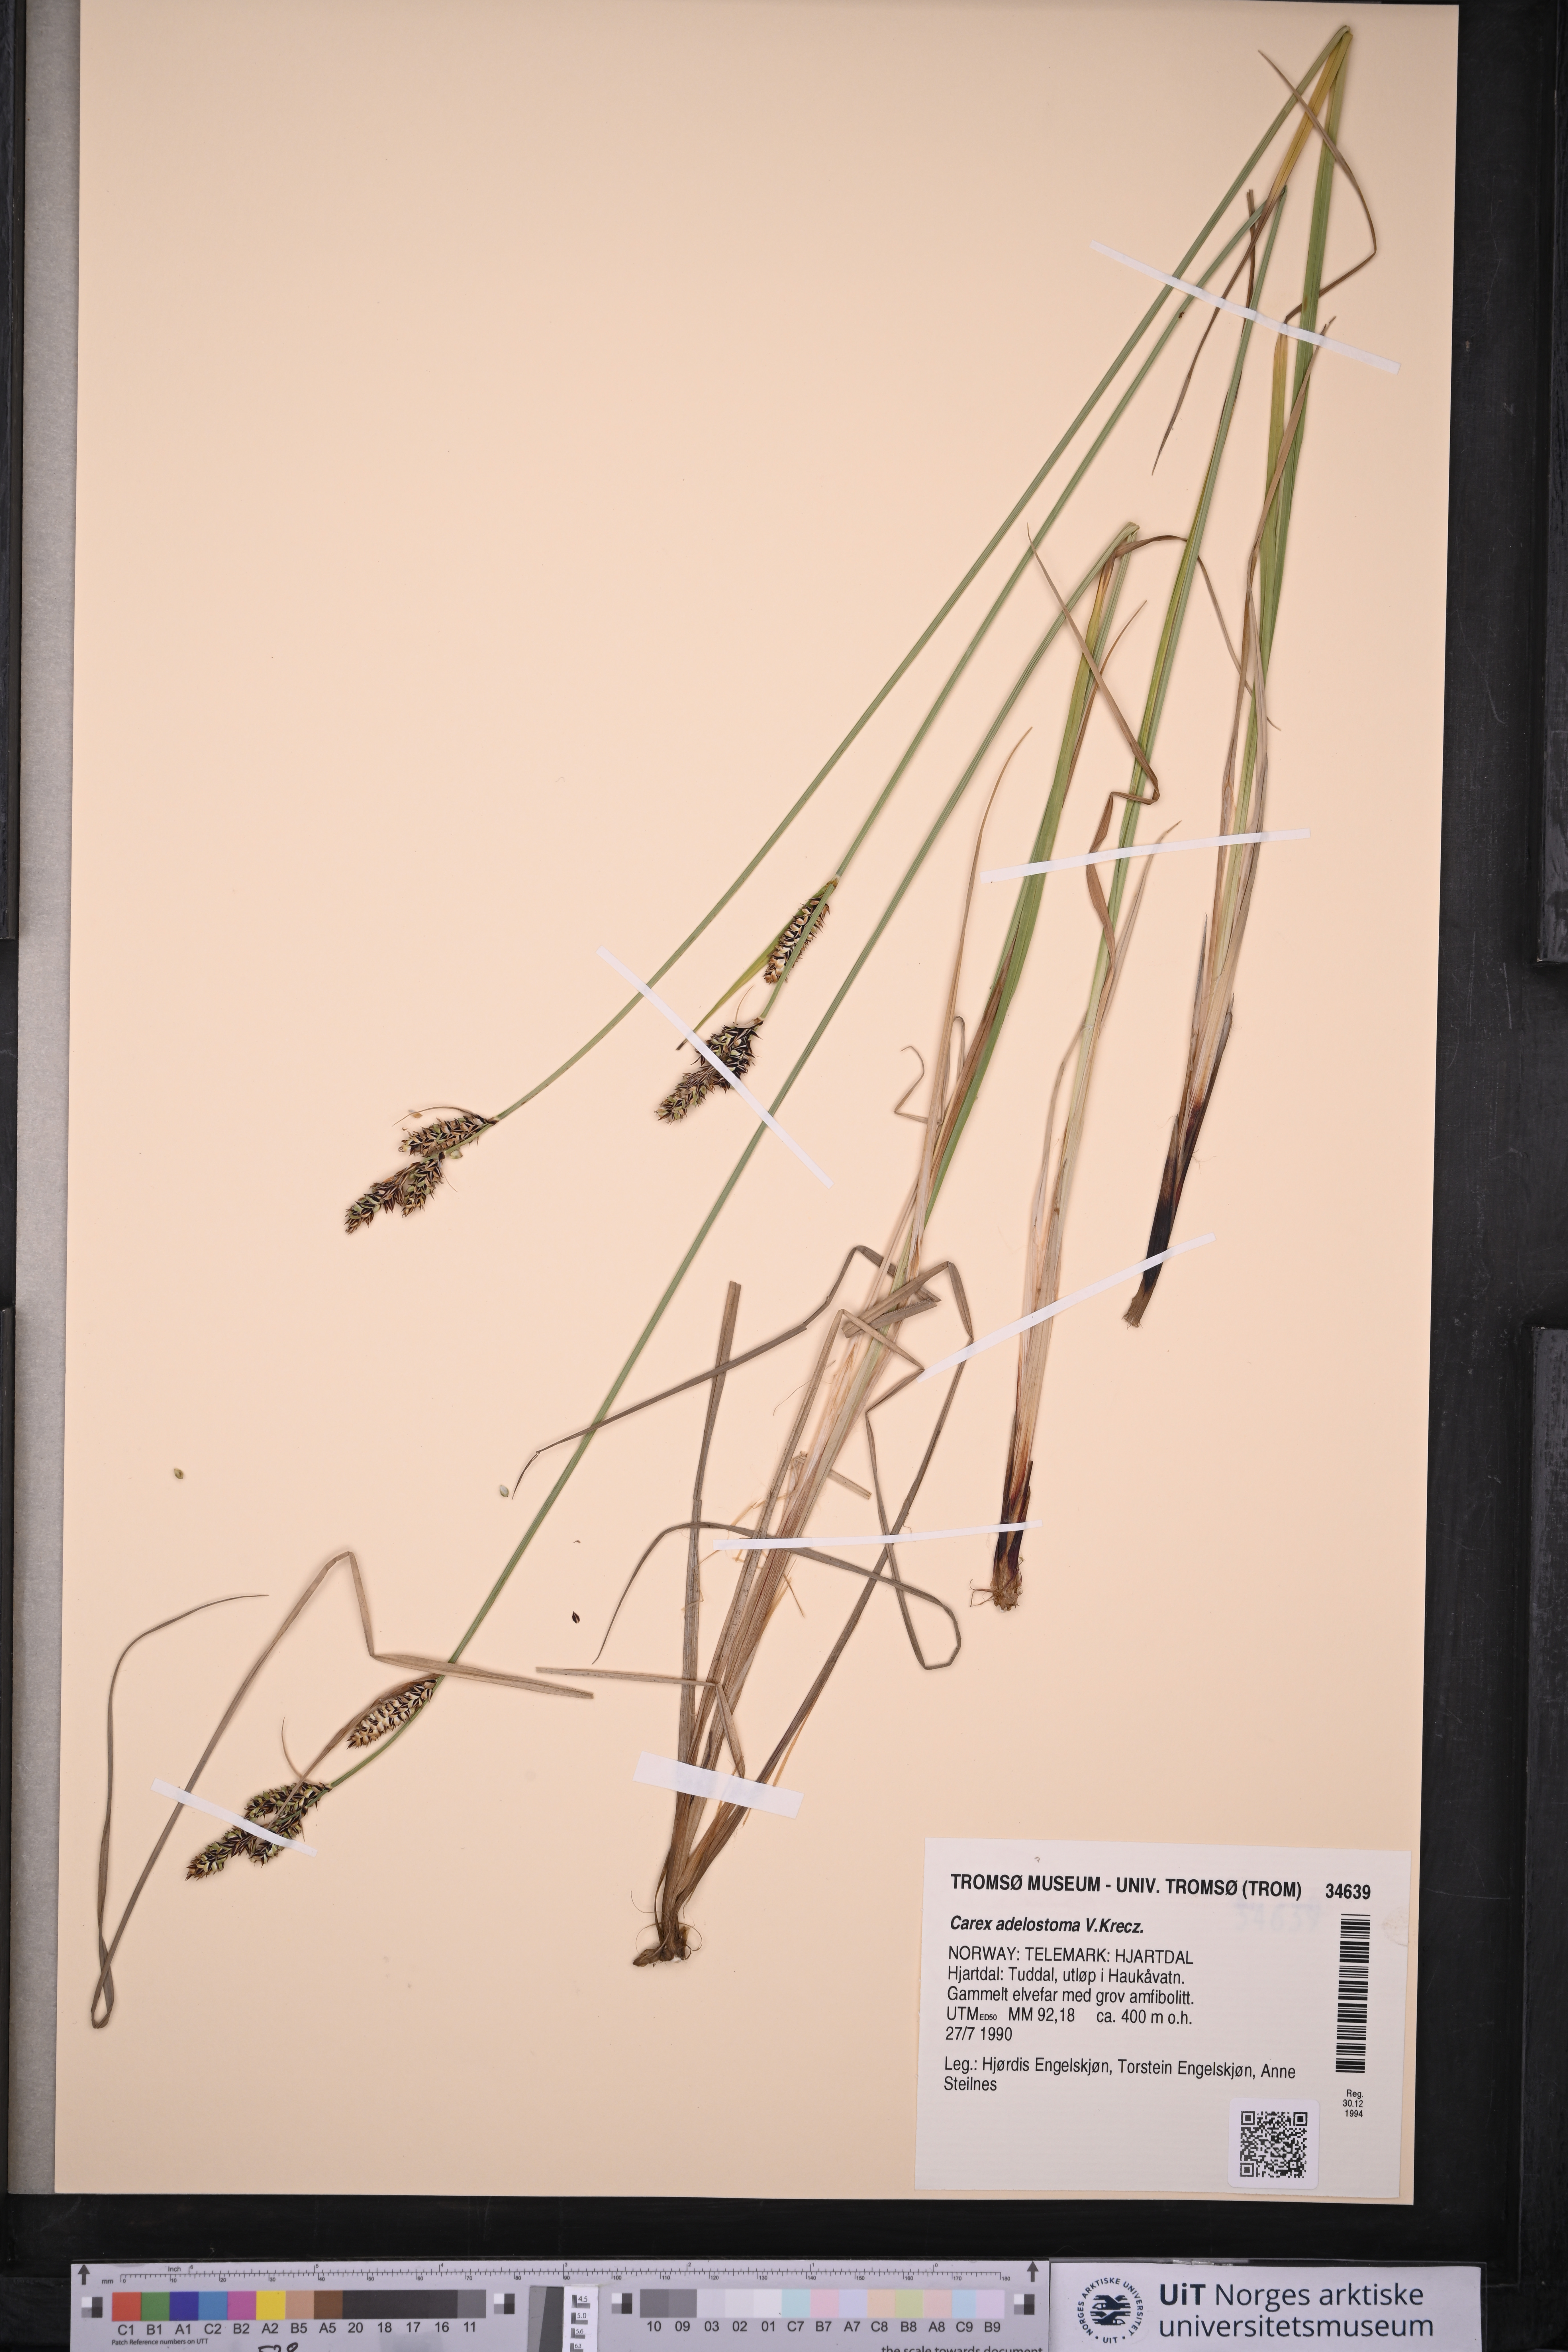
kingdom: Plantae
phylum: Tracheophyta
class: Liliopsida
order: Poales
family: Cyperaceae
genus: Carex
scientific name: Carex adelostoma
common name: Circumpolar sedge
